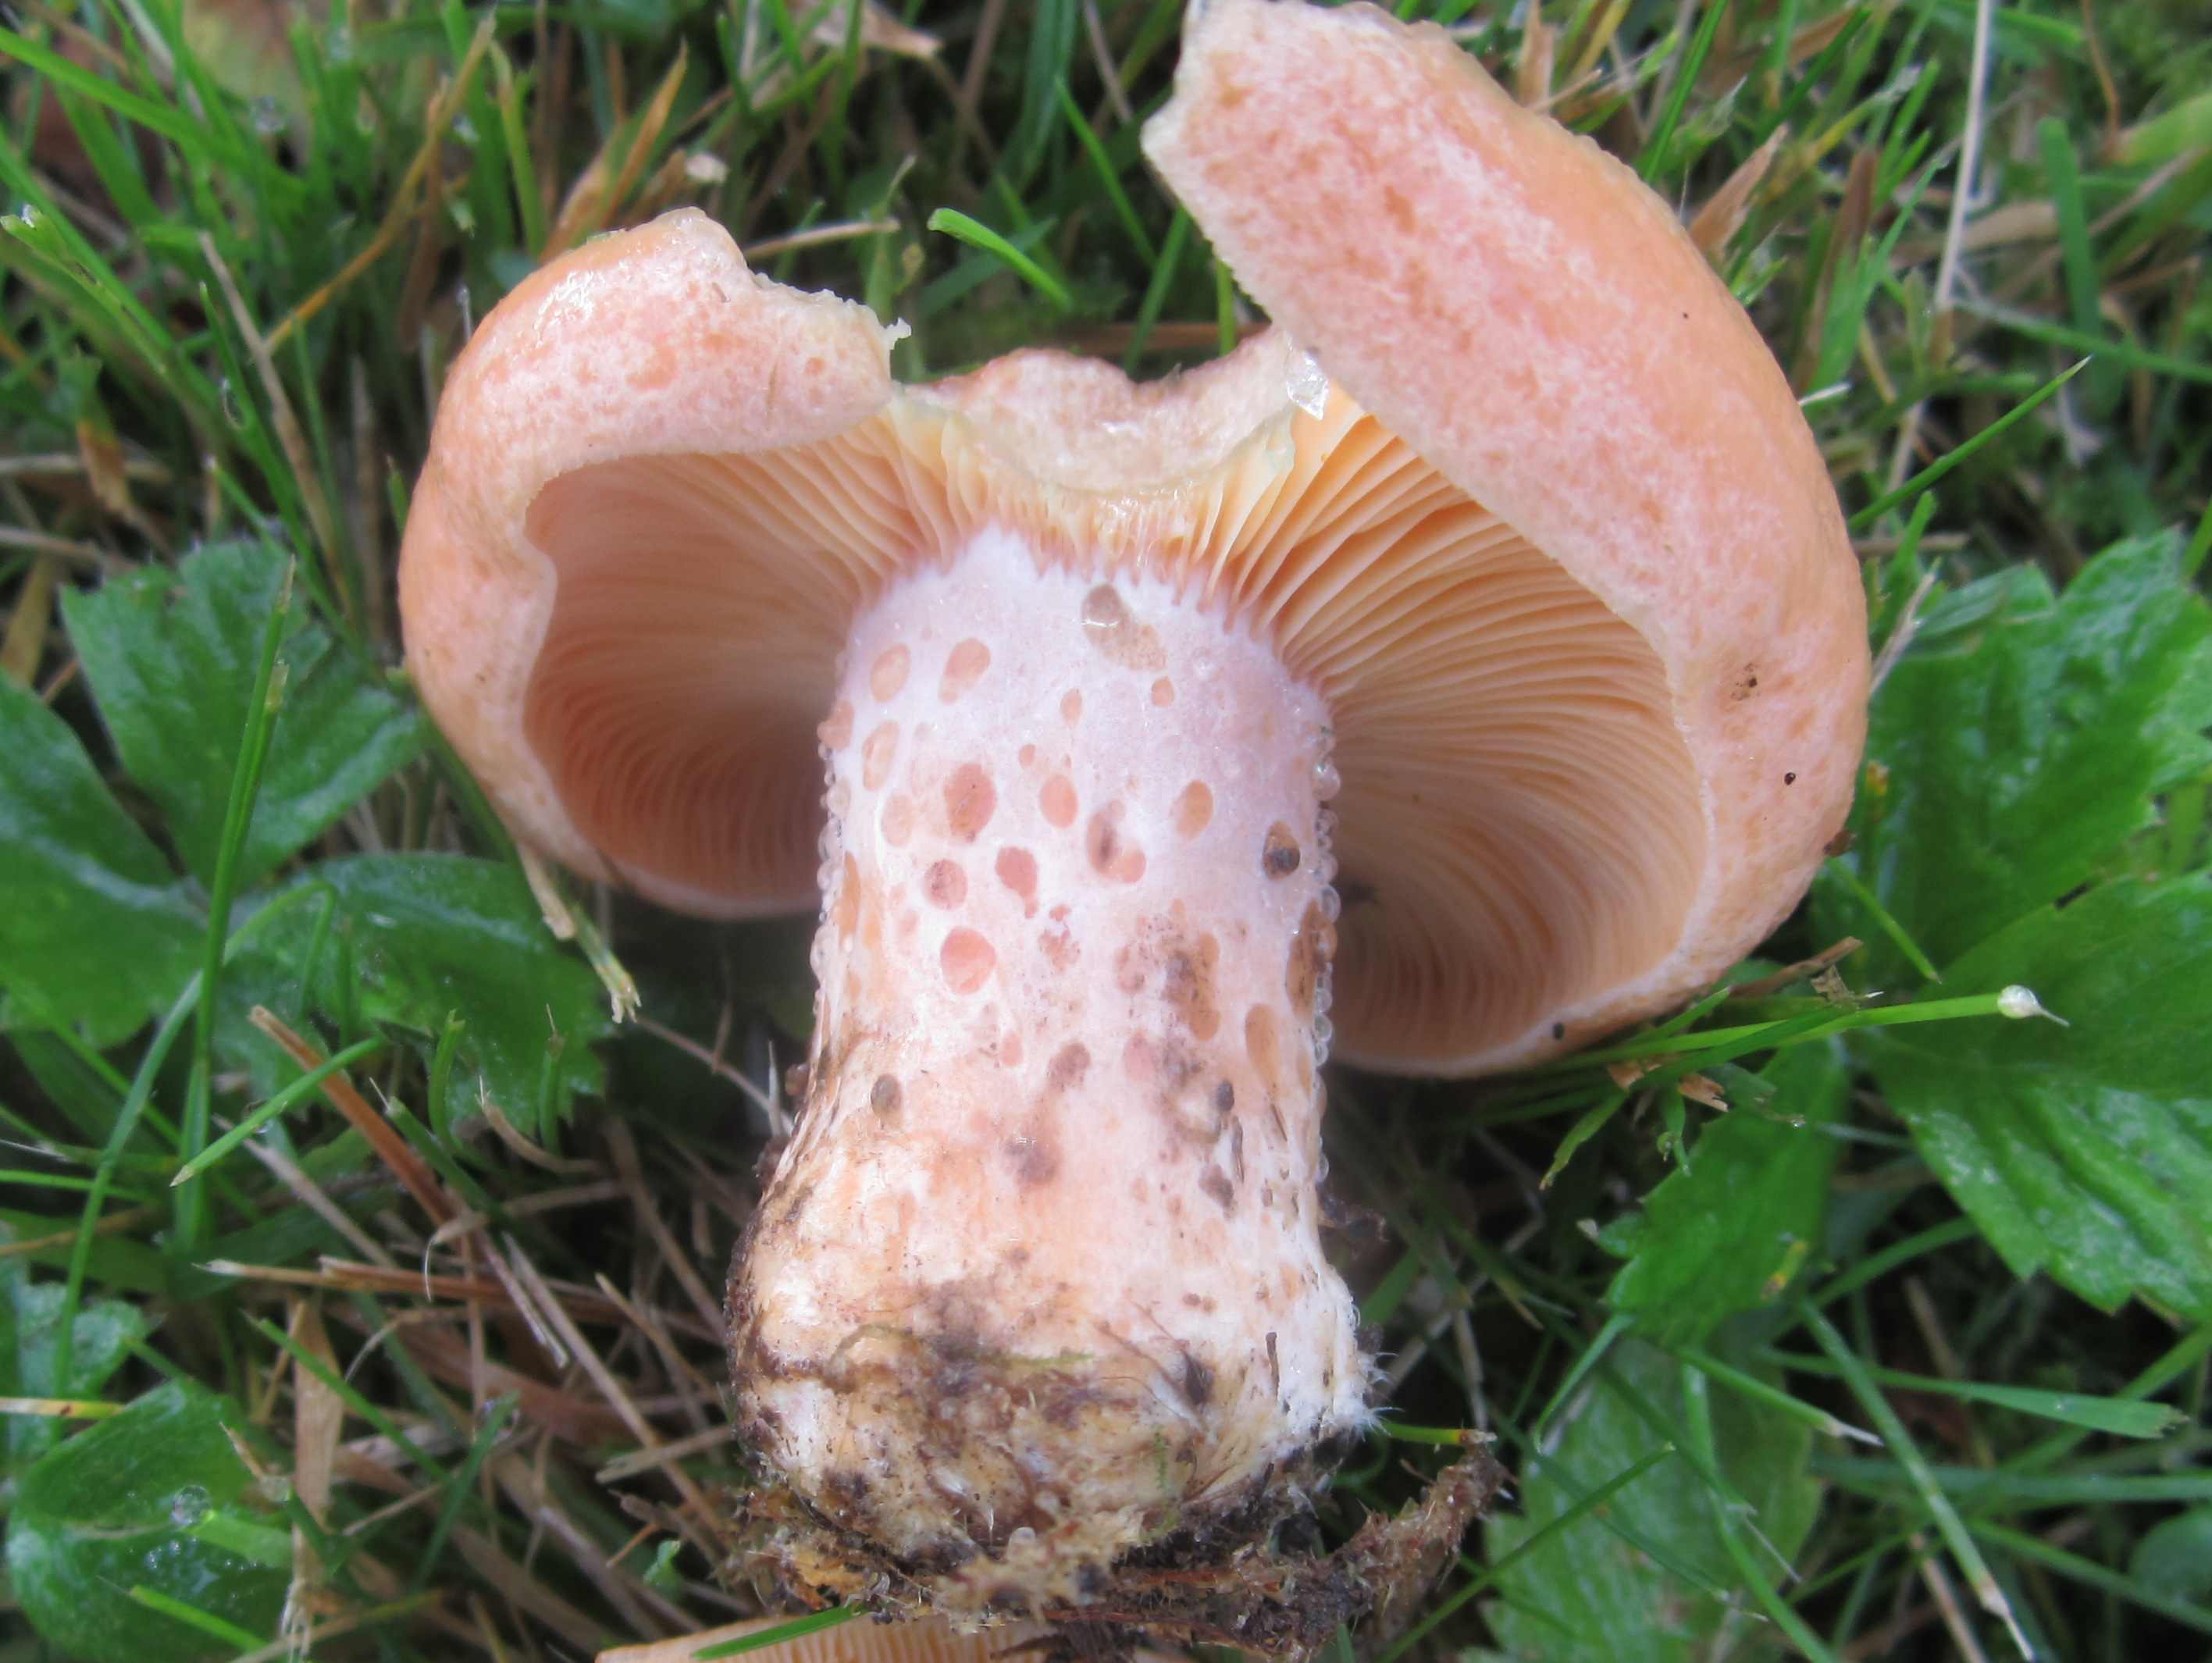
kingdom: Fungi
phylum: Basidiomycota
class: Agaricomycetes
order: Russulales
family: Russulaceae
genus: Lactarius
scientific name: Lactarius deliciosus
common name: velsmagende mælkehat
